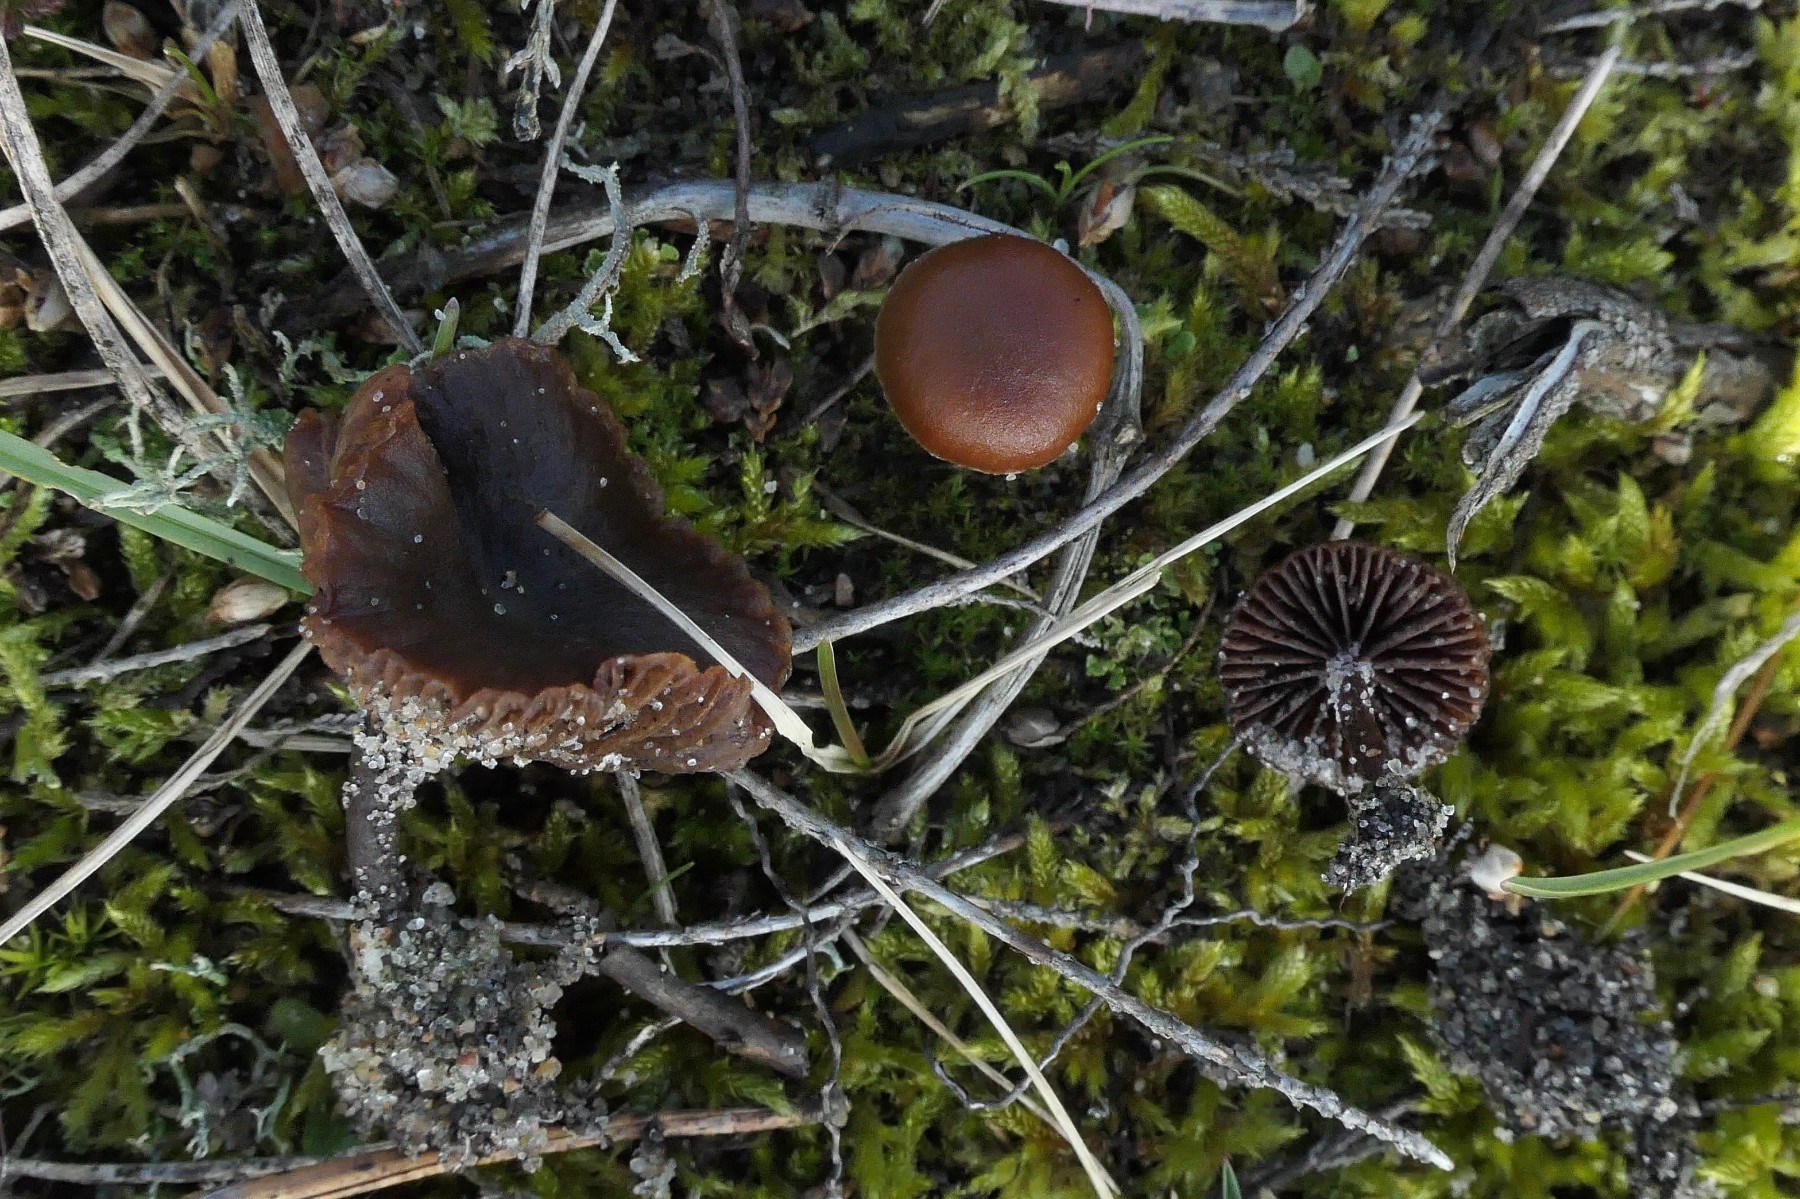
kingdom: Fungi
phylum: Basidiomycota
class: Agaricomycetes
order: Agaricales
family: Strophariaceae
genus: Deconica
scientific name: Deconica montana
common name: rødbrun stråhat
